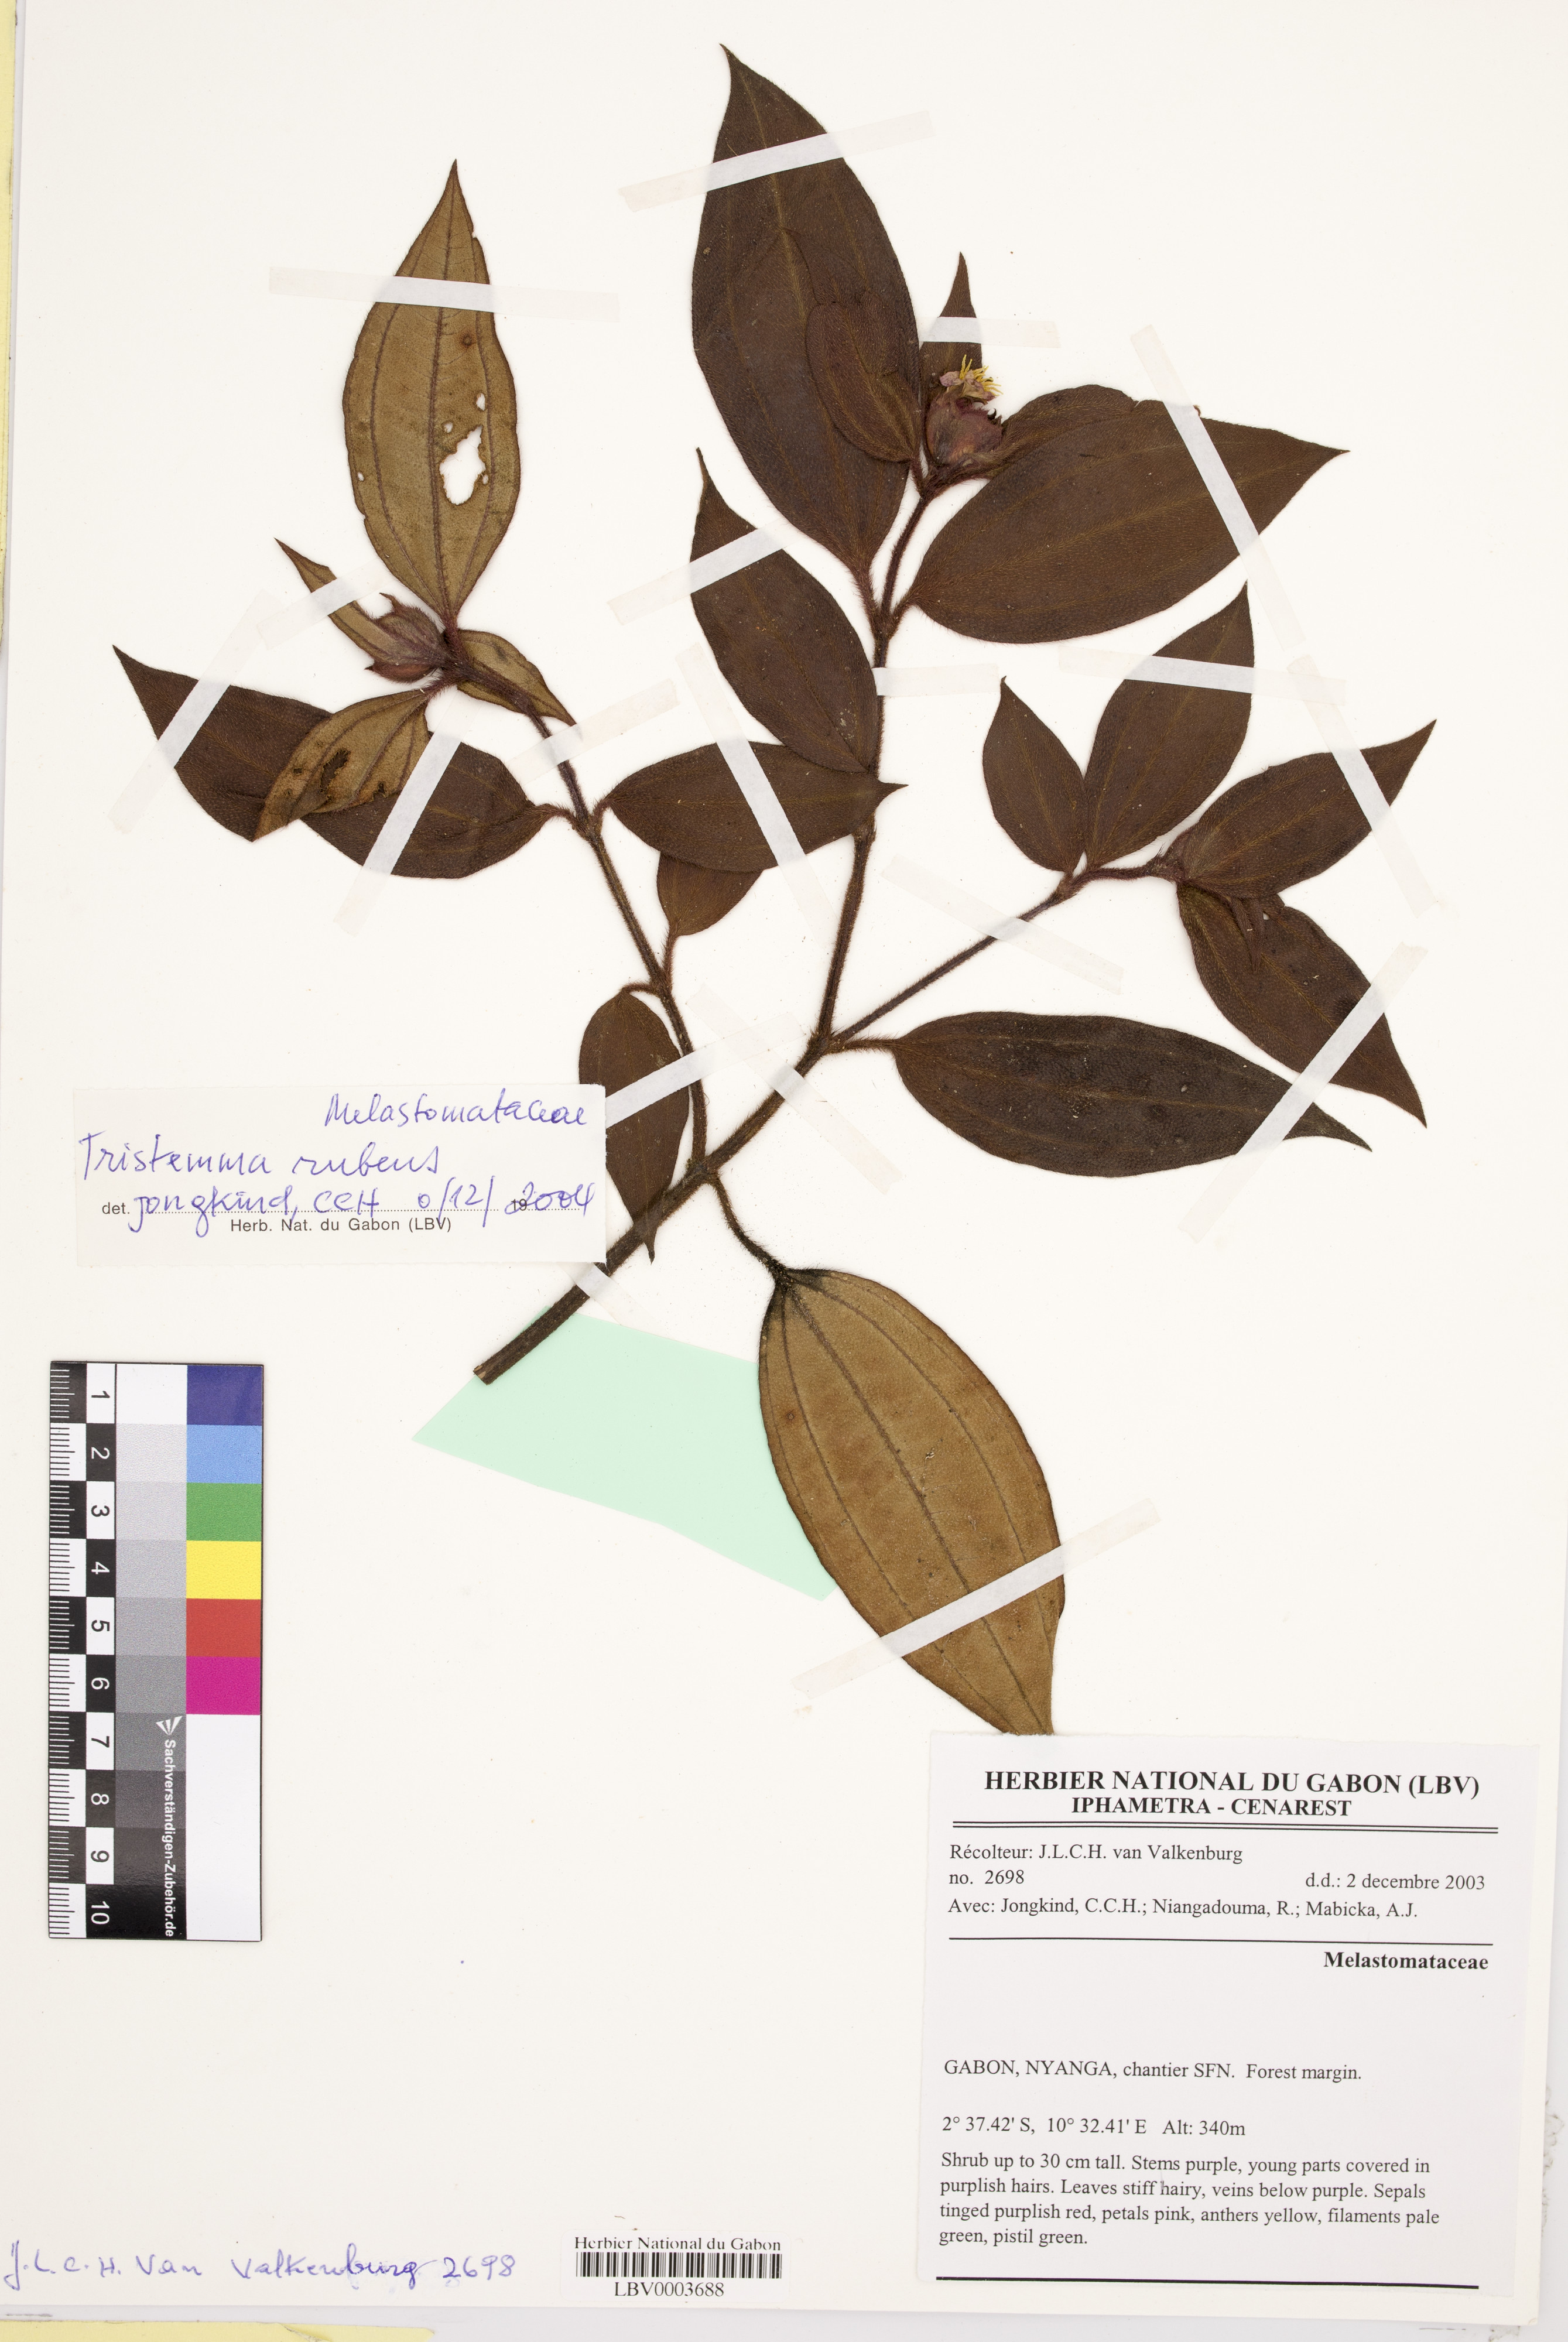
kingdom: Plantae
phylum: Tracheophyta
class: Magnoliopsida
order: Myrtales
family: Melastomataceae
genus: Tristemma
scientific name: Tristemma rubens
